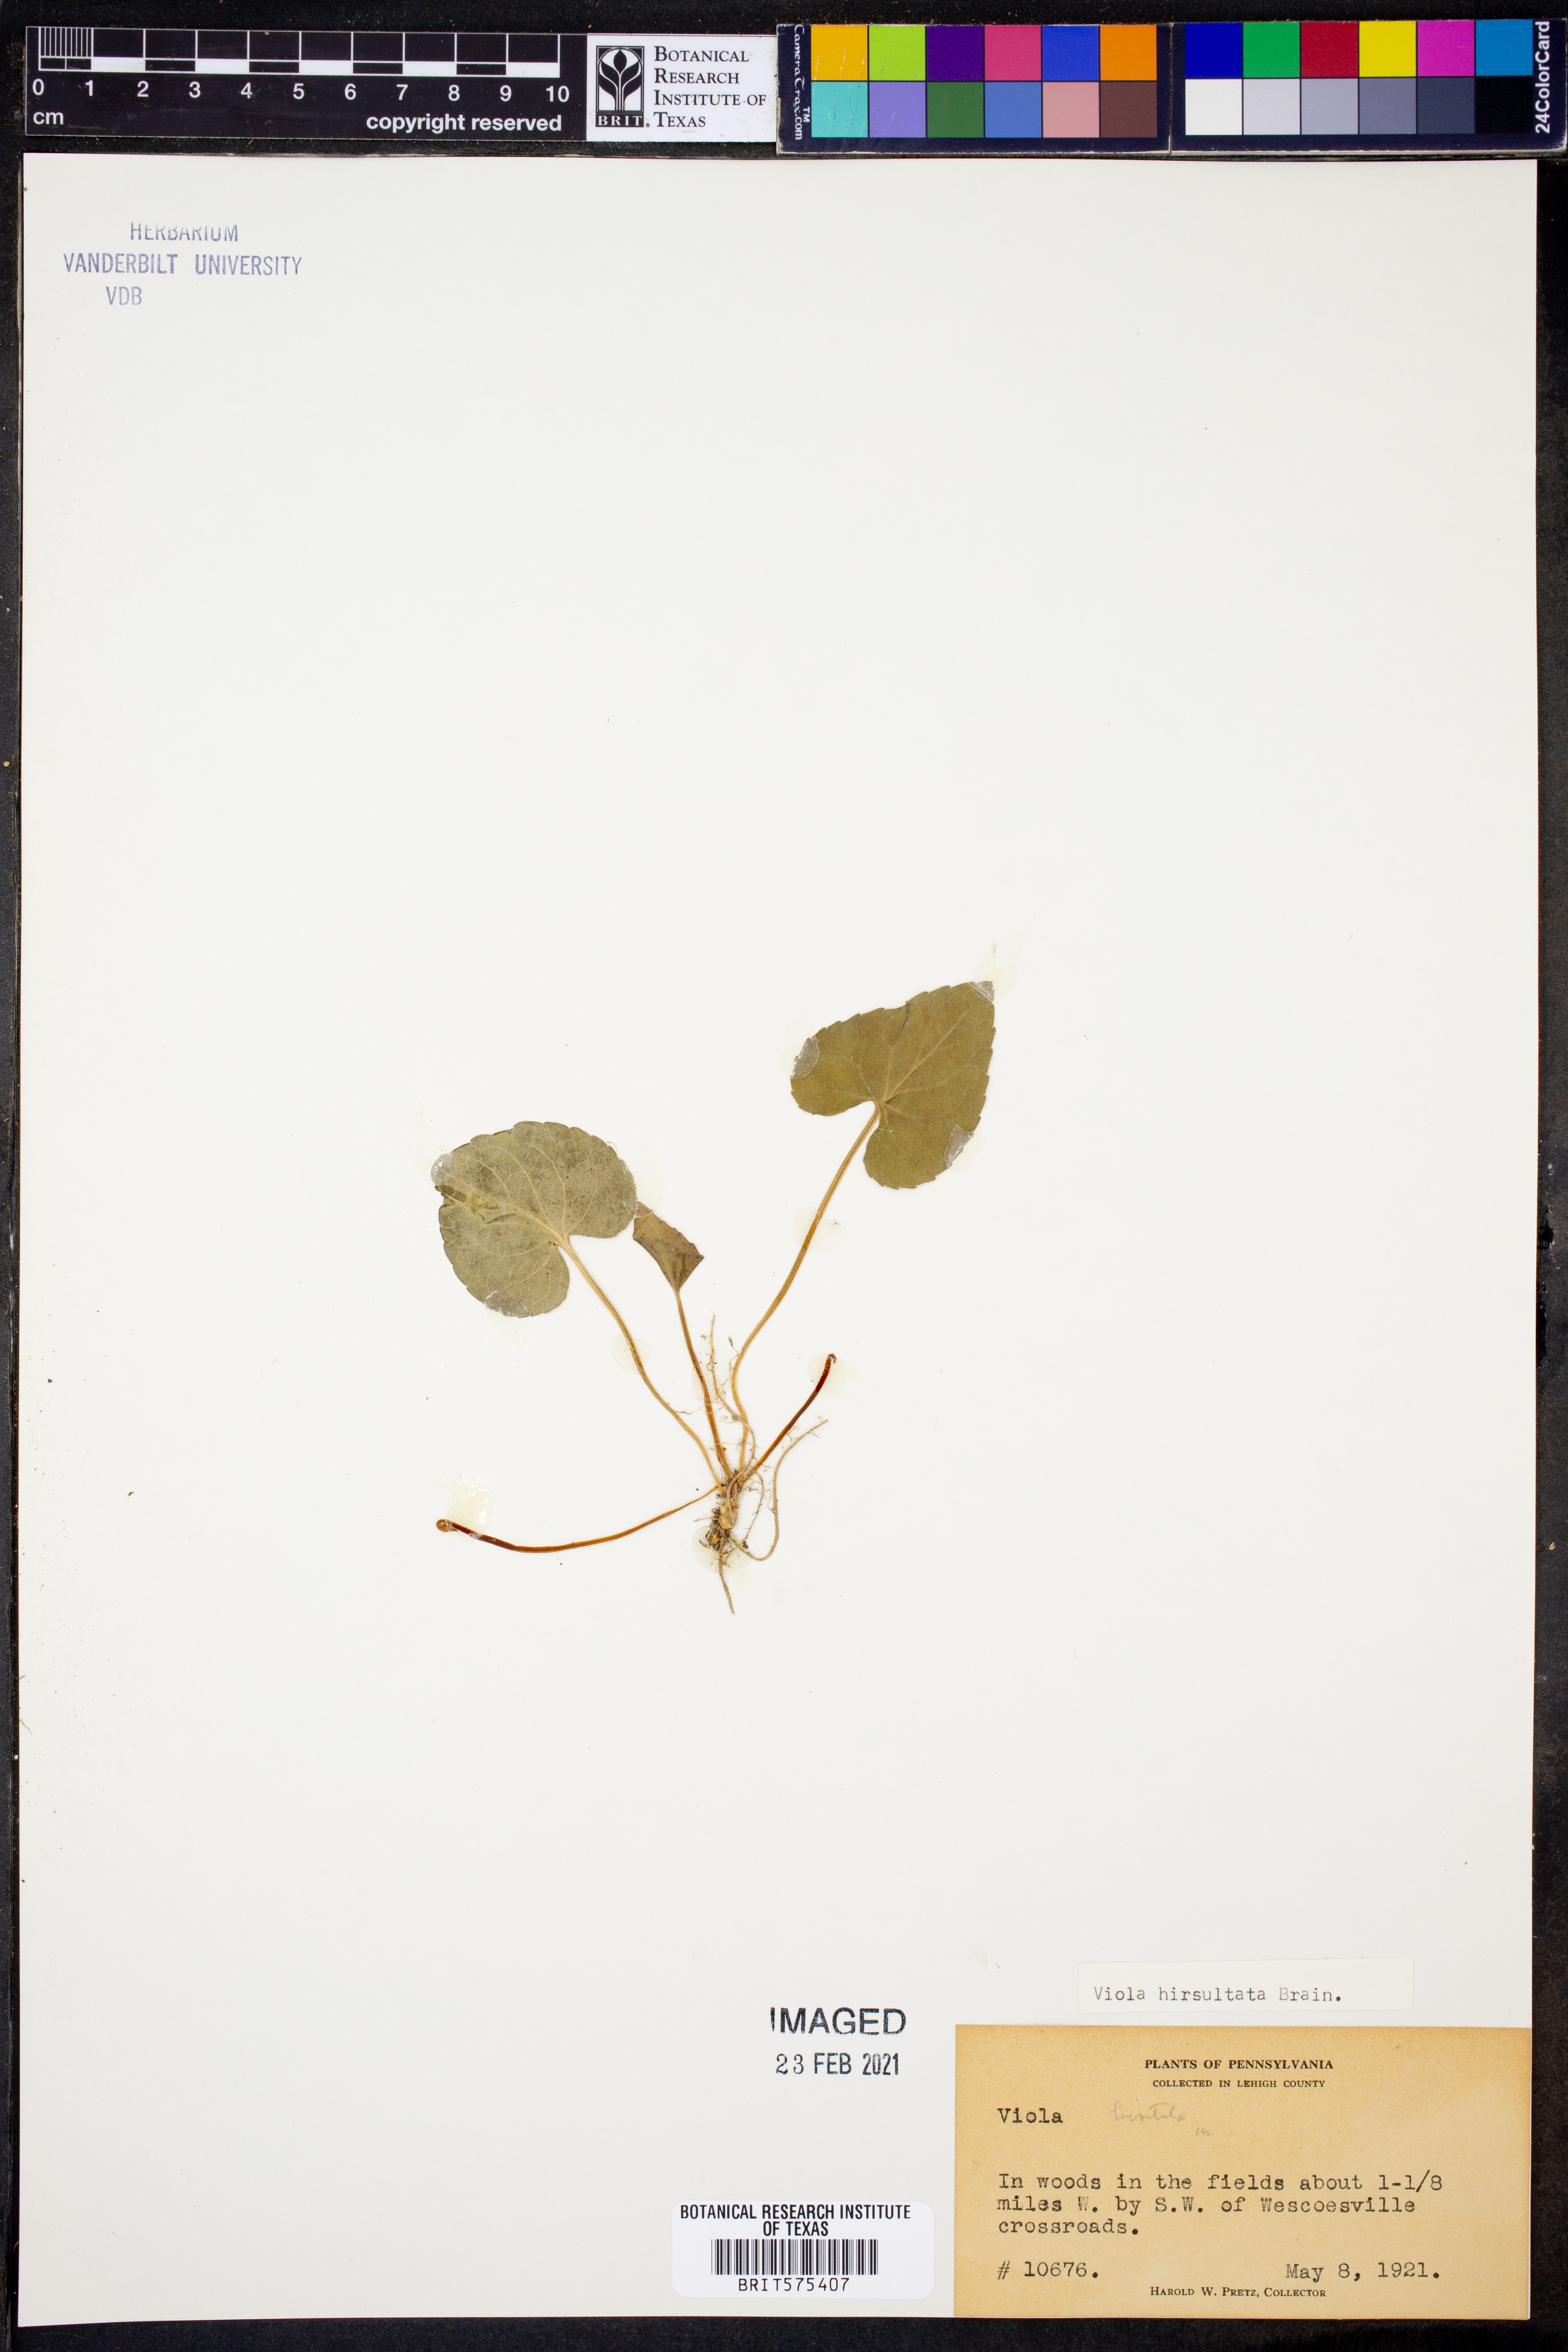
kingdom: Plantae
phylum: Tracheophyta
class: Magnoliopsida
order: Malpighiales
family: Violaceae
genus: Viola
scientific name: Viola hirsutula
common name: Southern wood violet
